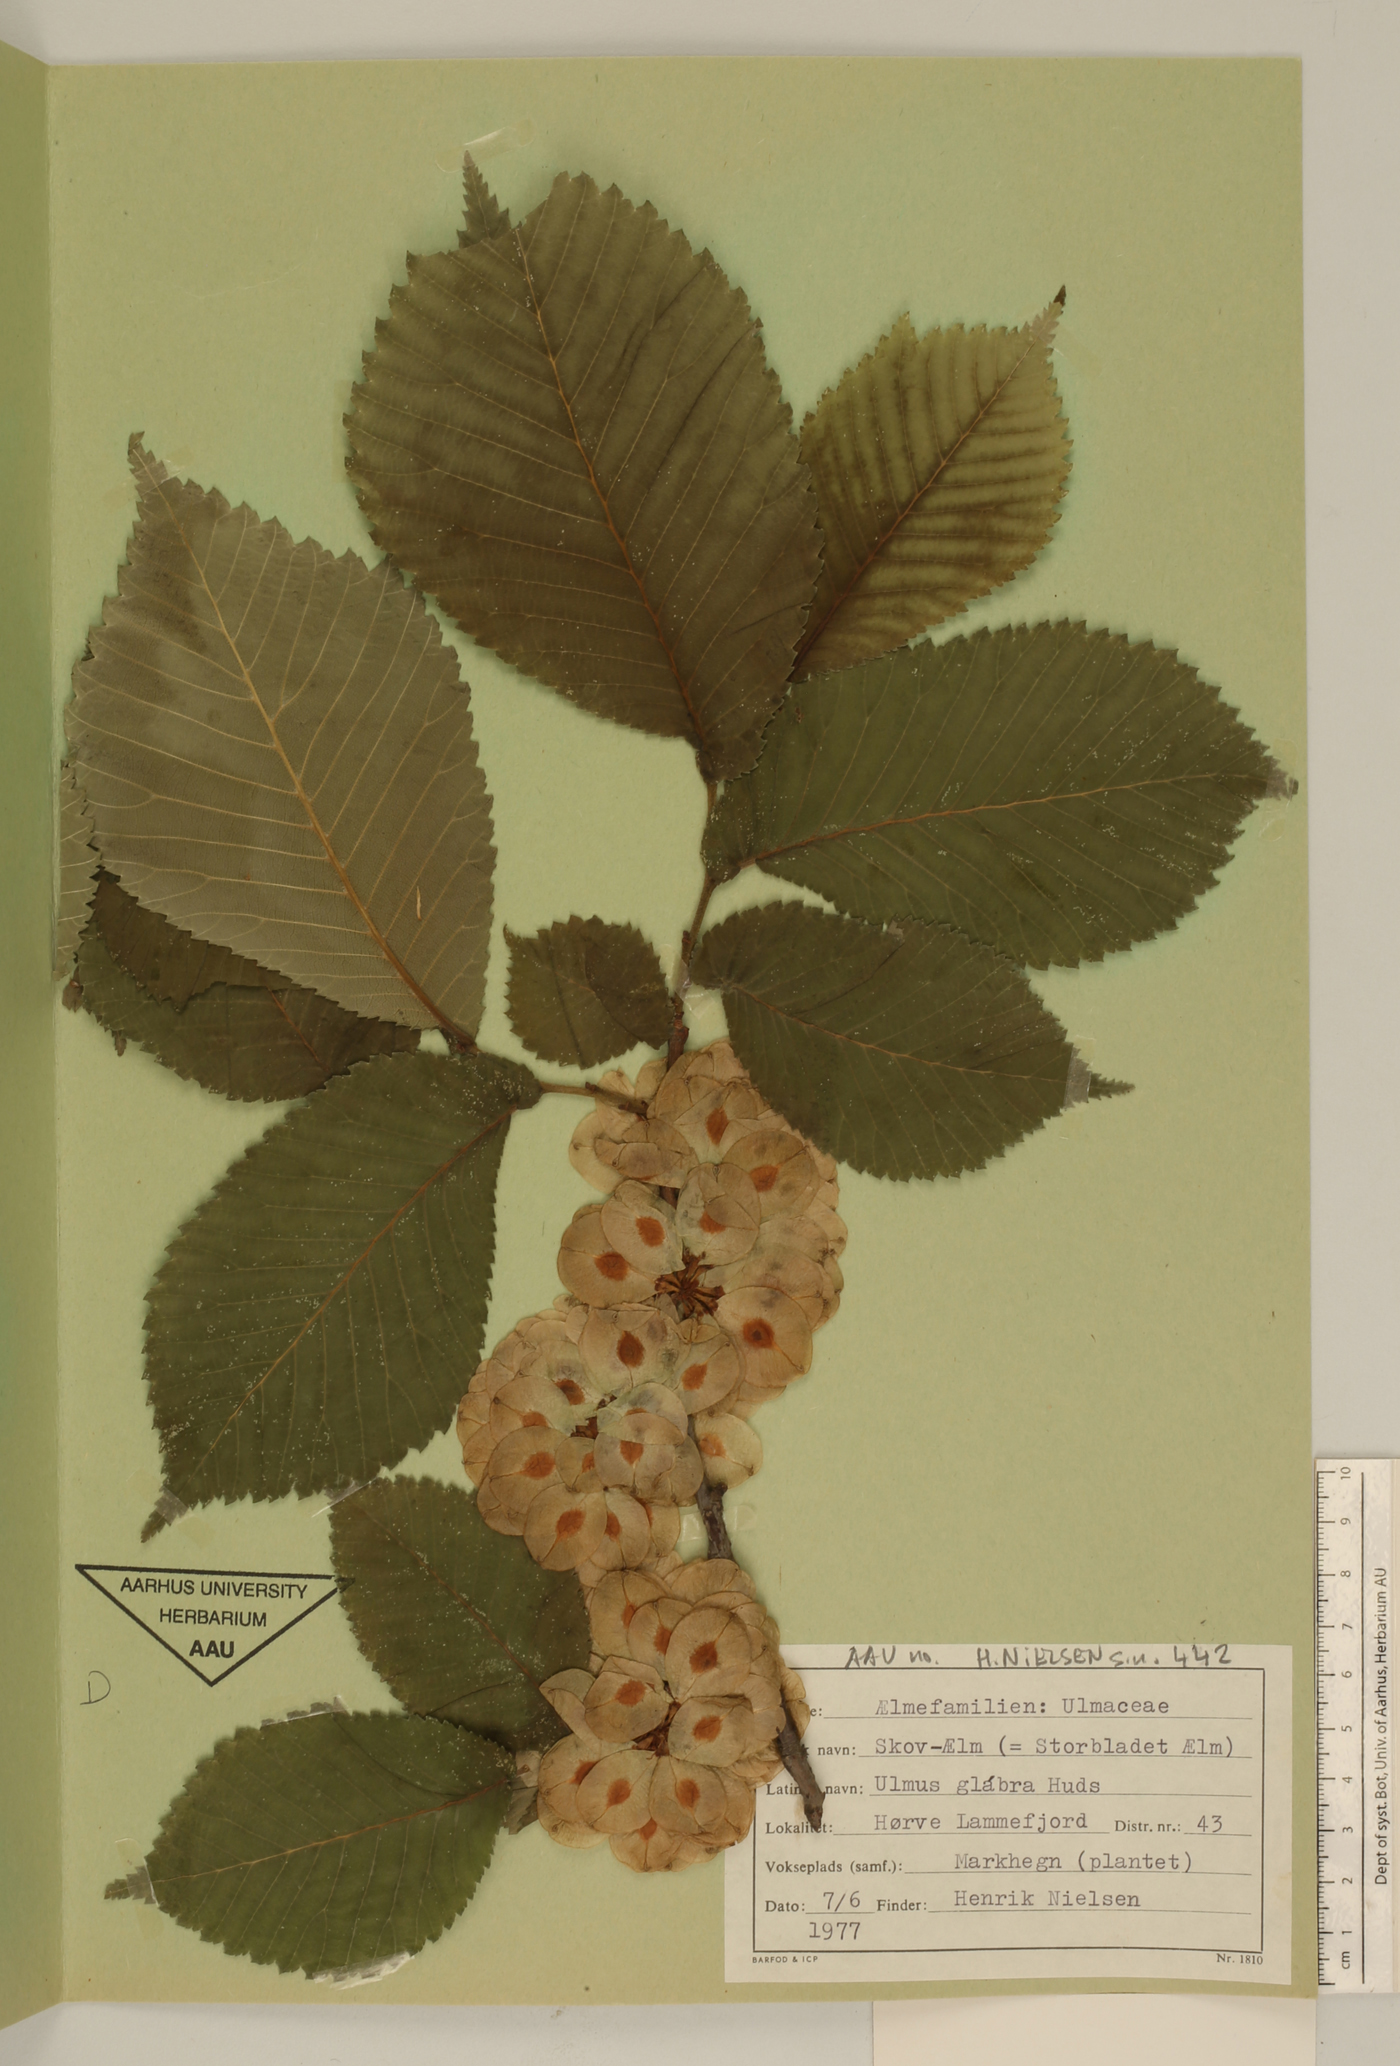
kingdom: Plantae
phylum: Tracheophyta
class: Magnoliopsida
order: Rosales
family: Ulmaceae
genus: Ulmus
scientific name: Ulmus glabra
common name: Wych elm
